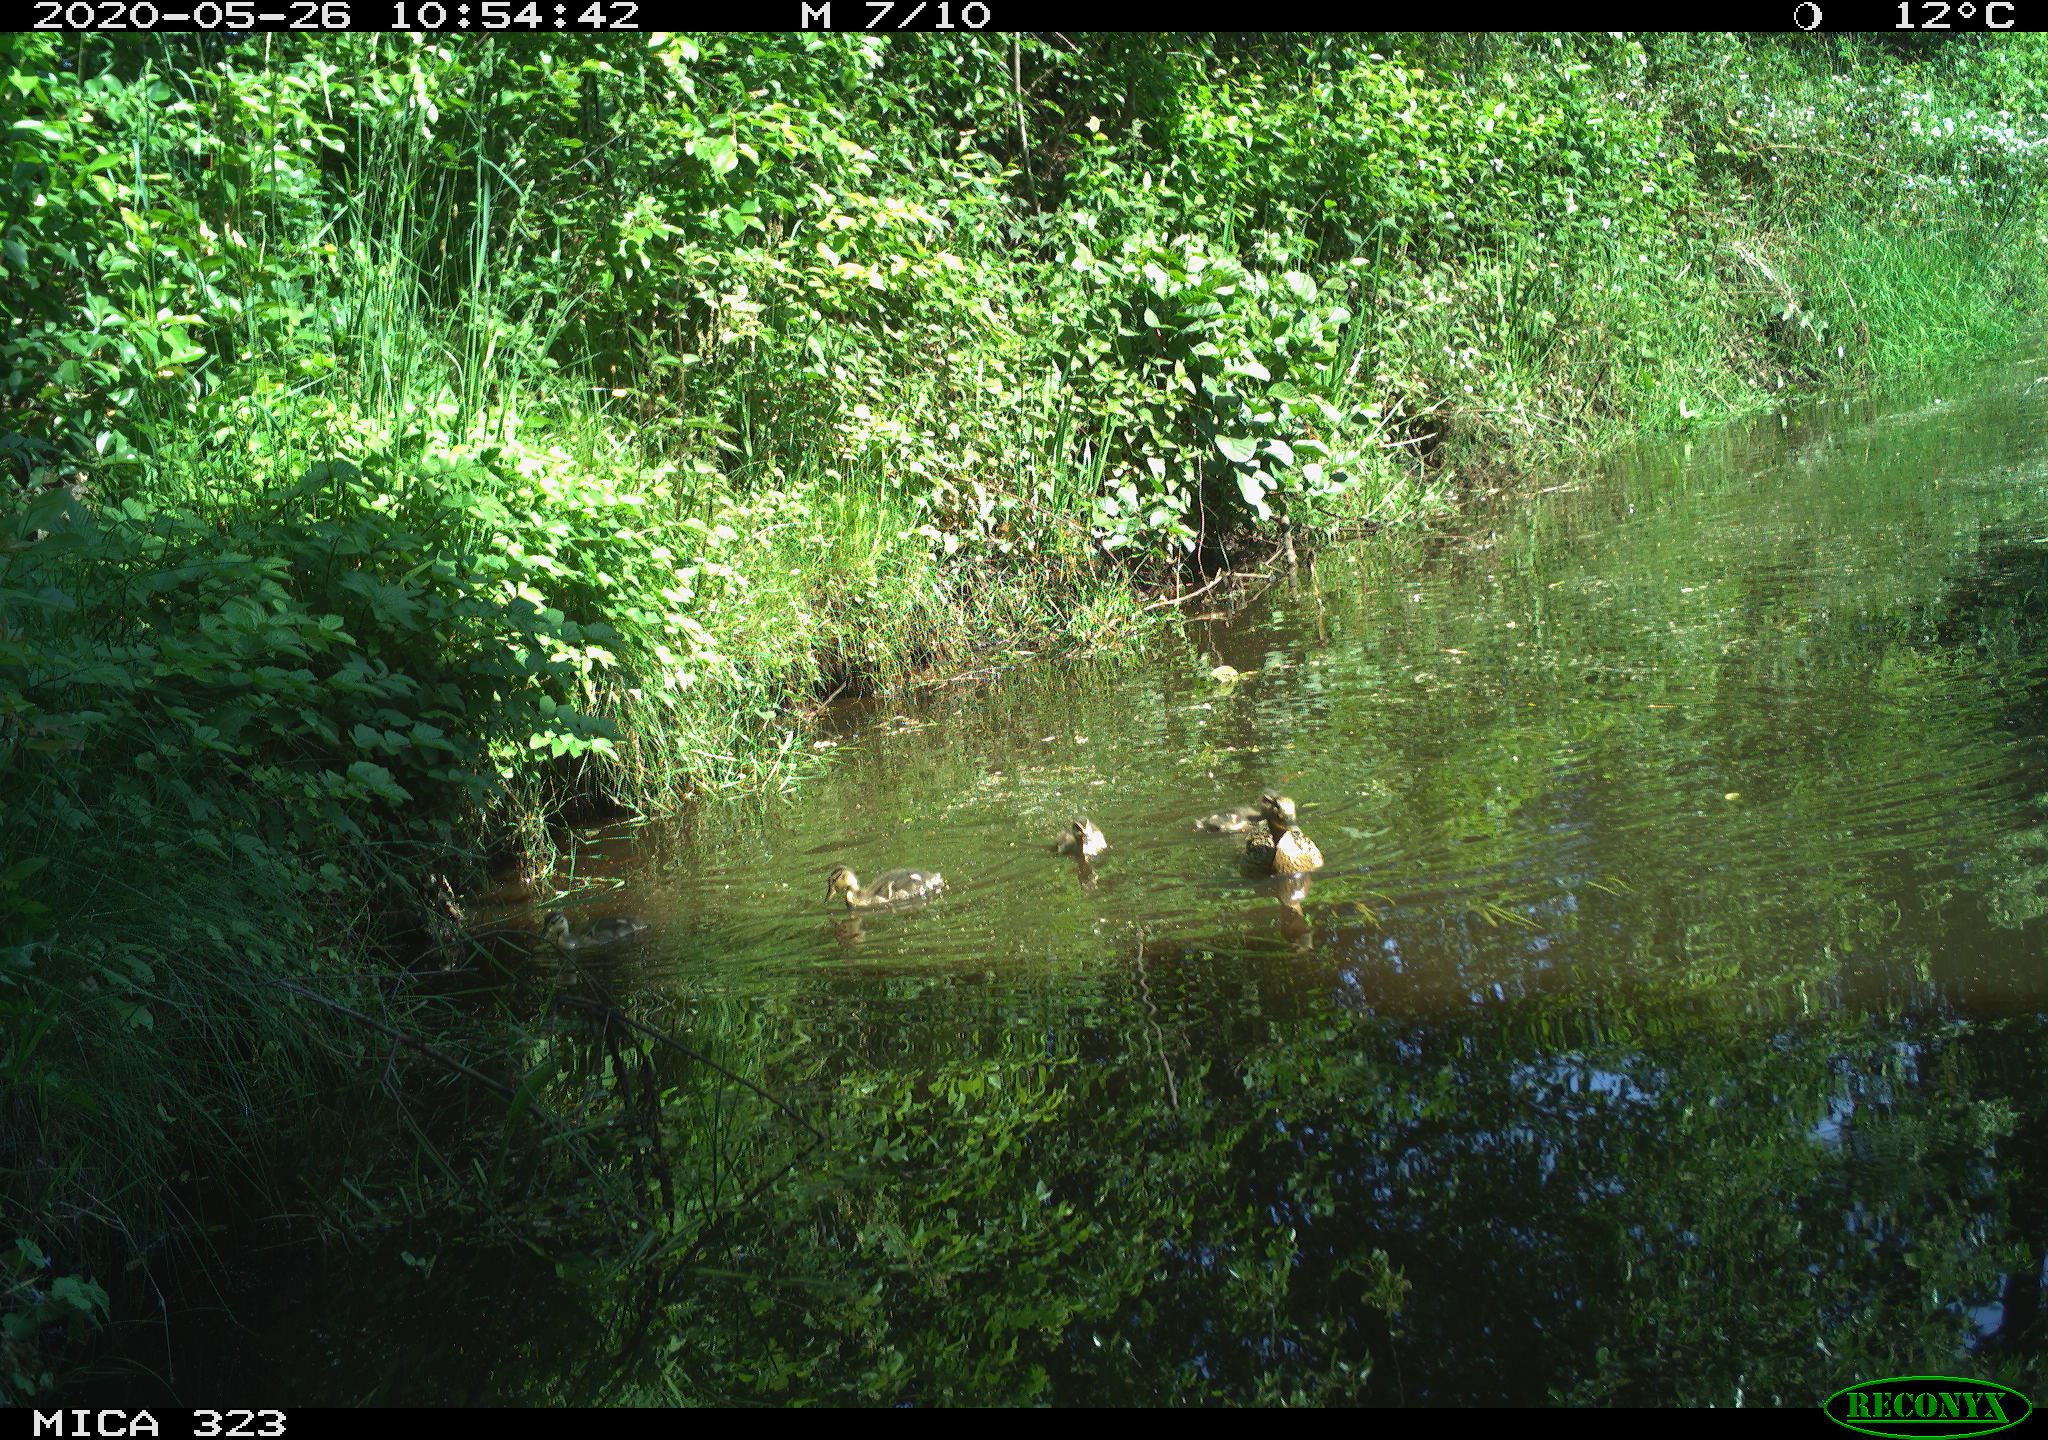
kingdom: Animalia
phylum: Chordata
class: Aves
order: Anseriformes
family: Anatidae
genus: Anas
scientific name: Anas platyrhynchos
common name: Mallard
